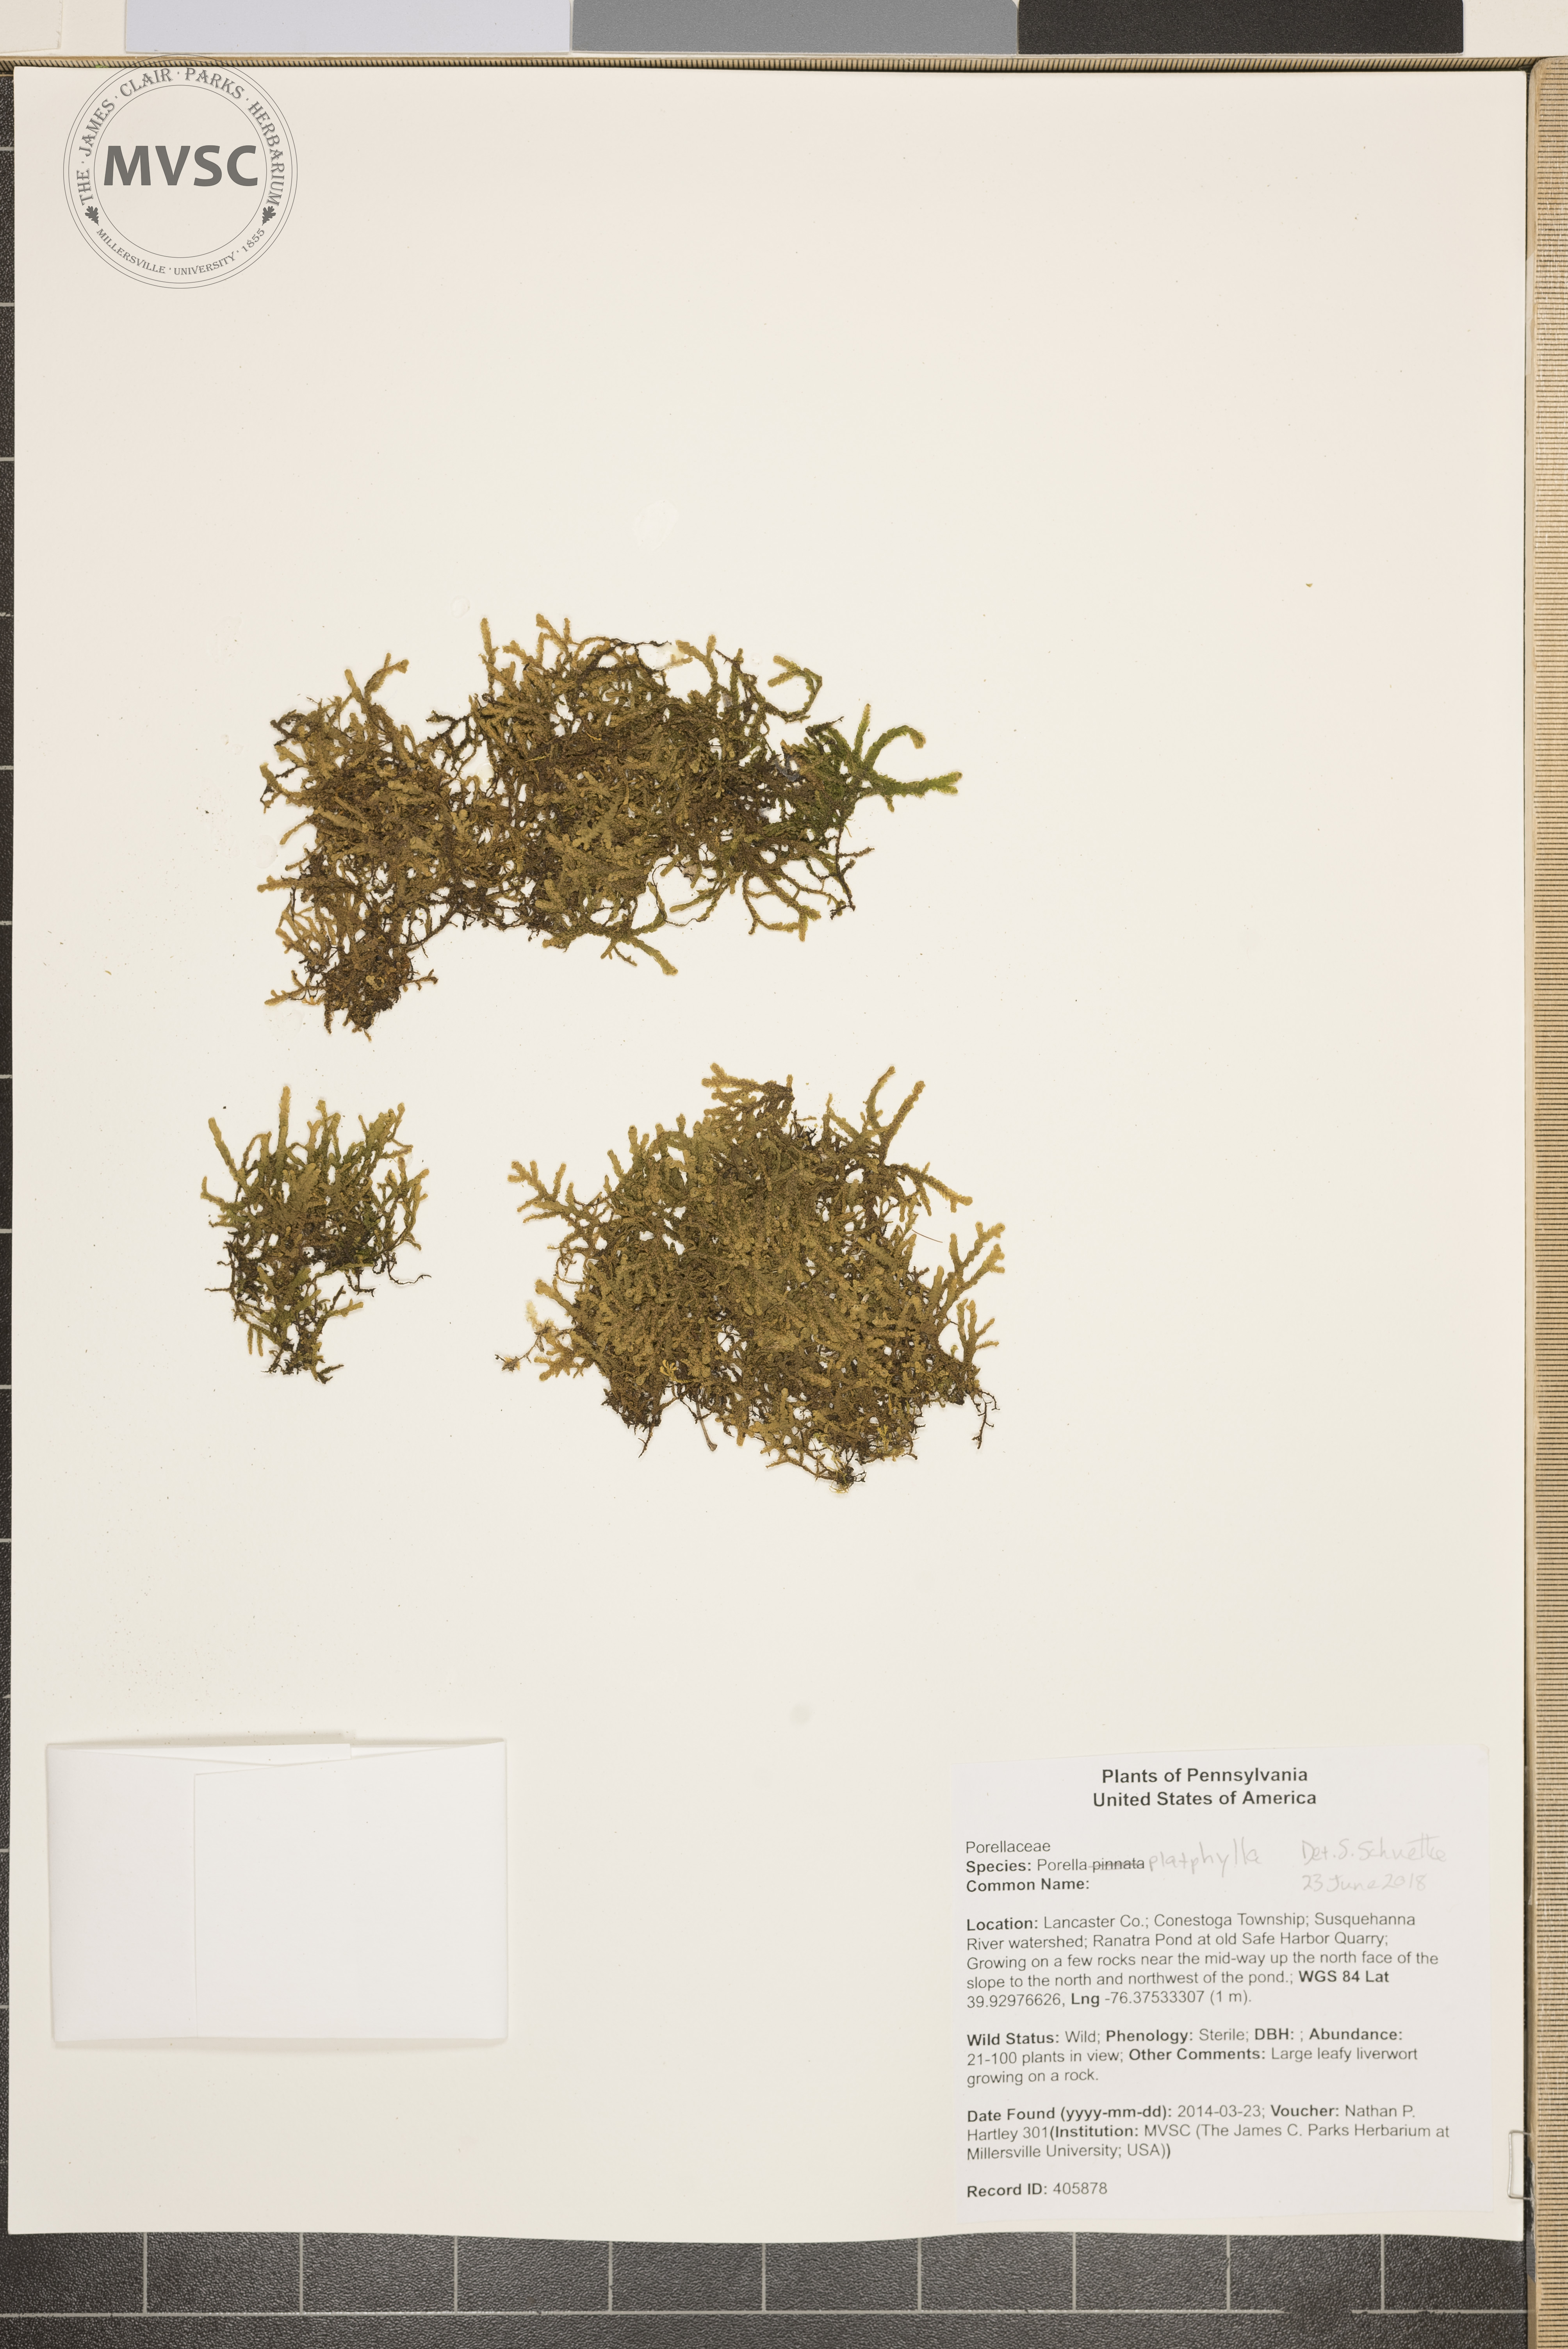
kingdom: Plantae
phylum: Marchantiophyta
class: Jungermanniopsida
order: Porellales
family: Porellaceae
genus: Porella
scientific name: Porella platyphylla
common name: Liverwort
